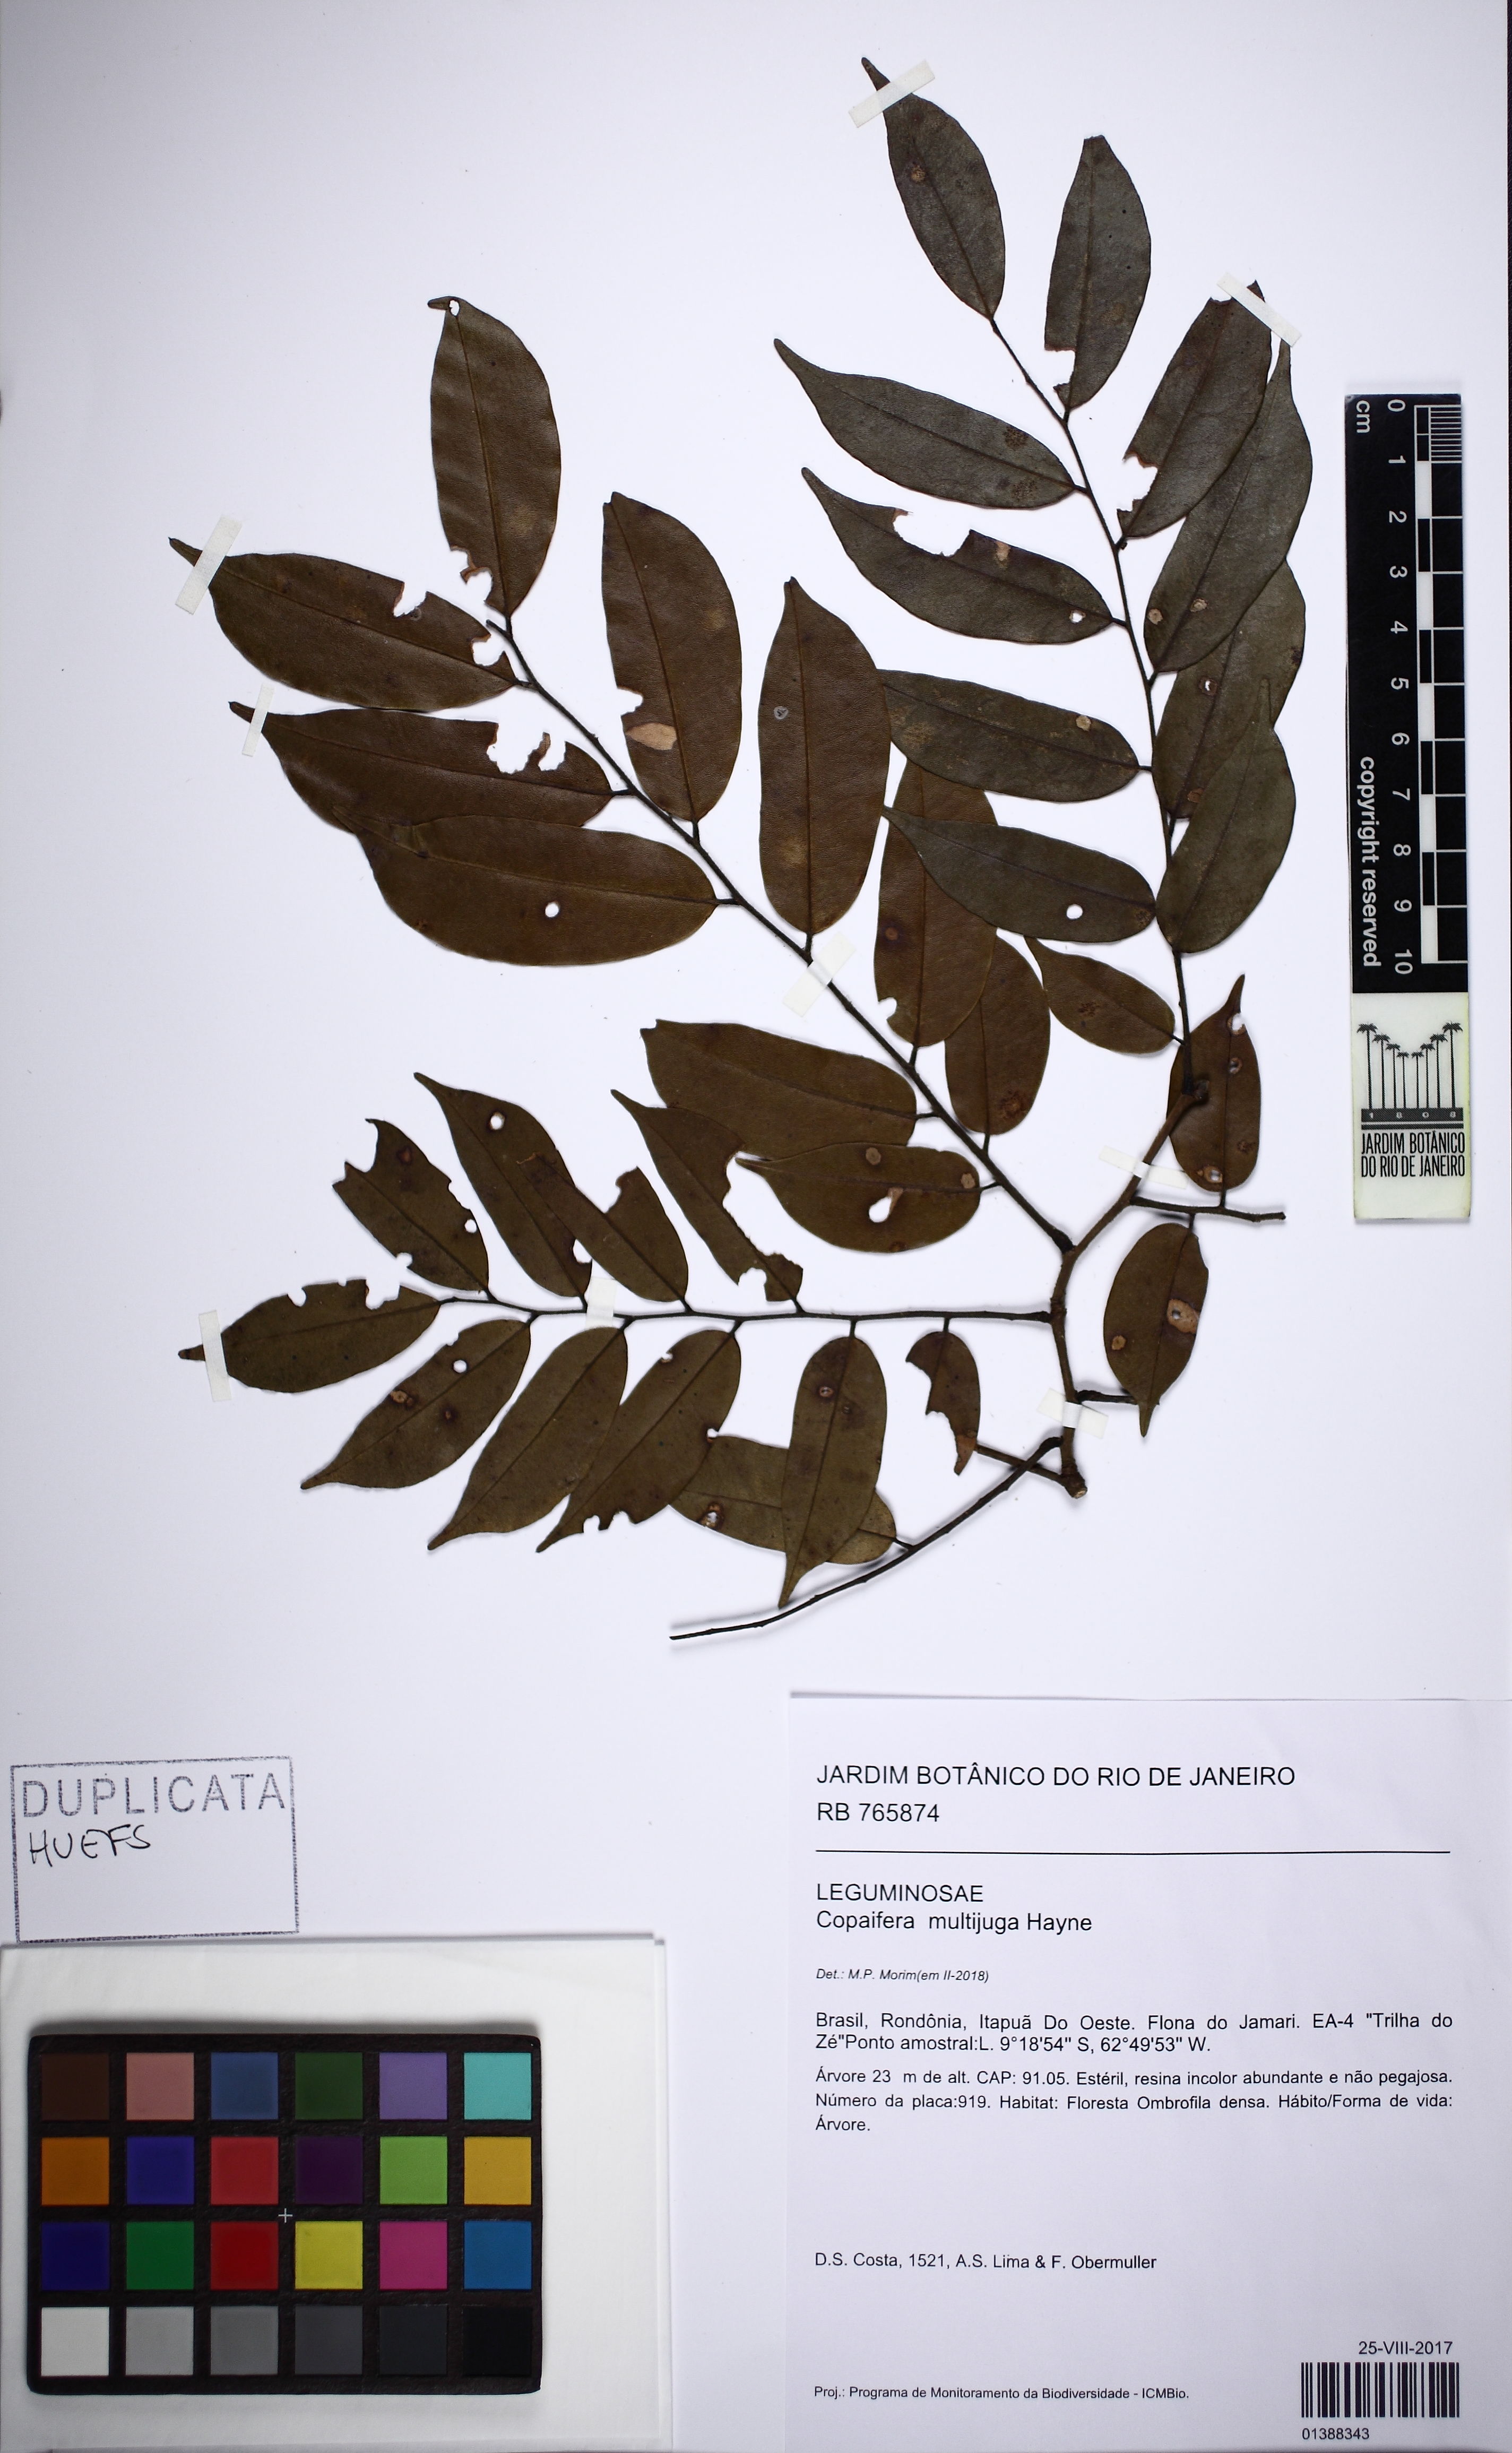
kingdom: Plantae
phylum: Tracheophyta
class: Magnoliopsida
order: Fabales
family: Fabaceae
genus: Copaifera
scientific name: Copaifera multijuga
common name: Brazilian copaiba
